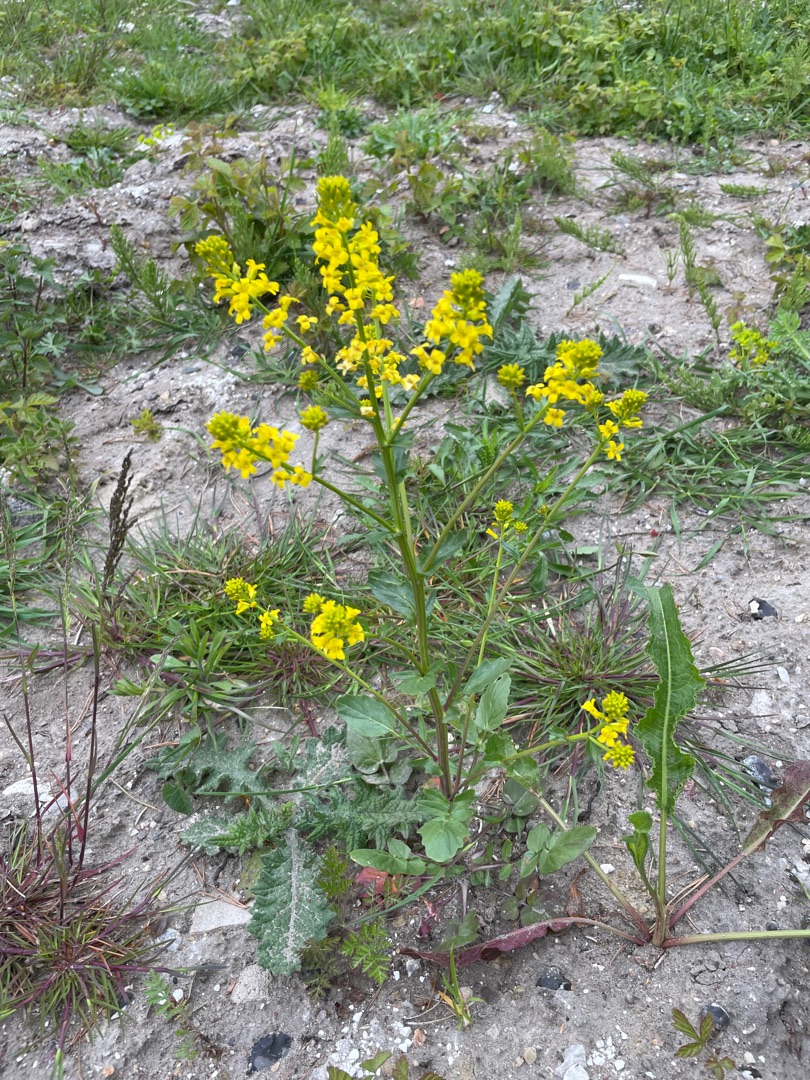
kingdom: Plantae
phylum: Tracheophyta
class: Magnoliopsida
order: Brassicales
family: Brassicaceae
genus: Barbarea
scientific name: Barbarea vulgaris
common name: Almindelig vinterkarse
